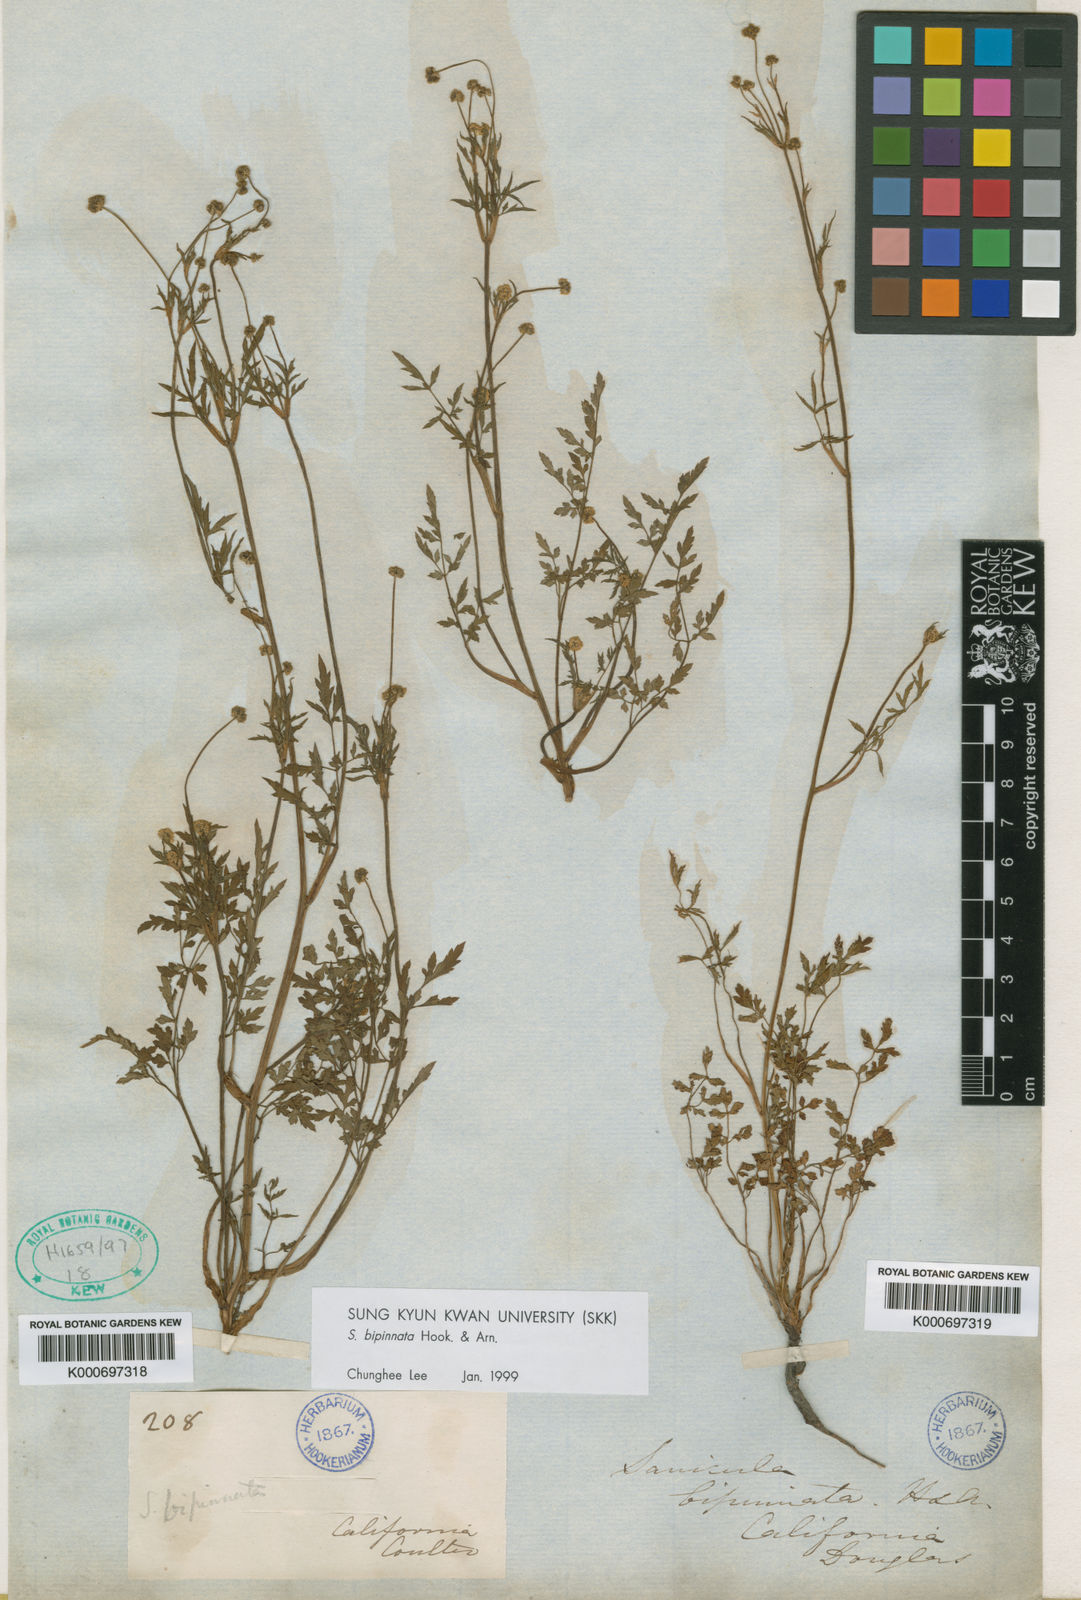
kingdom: Plantae
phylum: Tracheophyta
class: Magnoliopsida
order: Apiales
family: Apiaceae
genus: Sanicula
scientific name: Sanicula bipinnata
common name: Poison sanicle
